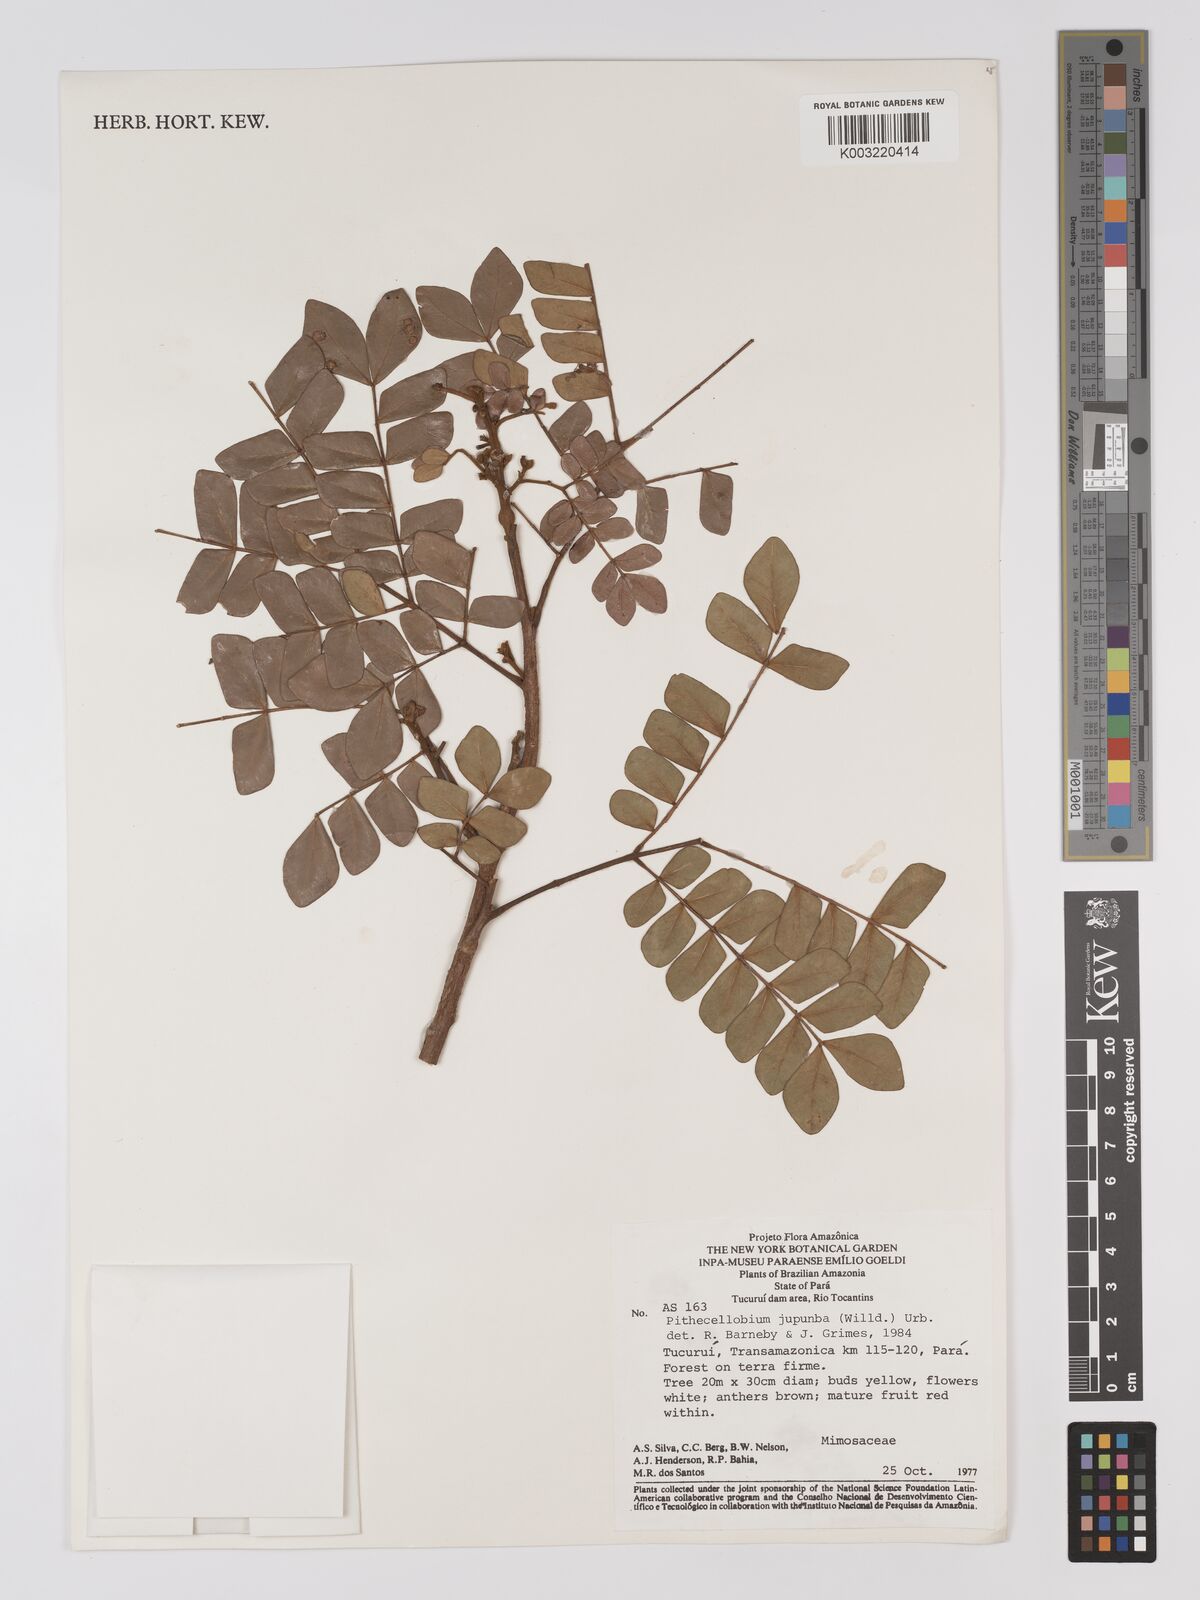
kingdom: Plantae
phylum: Tracheophyta
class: Magnoliopsida
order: Fabales
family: Fabaceae
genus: Jupunba
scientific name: Jupunba trapezifolia
